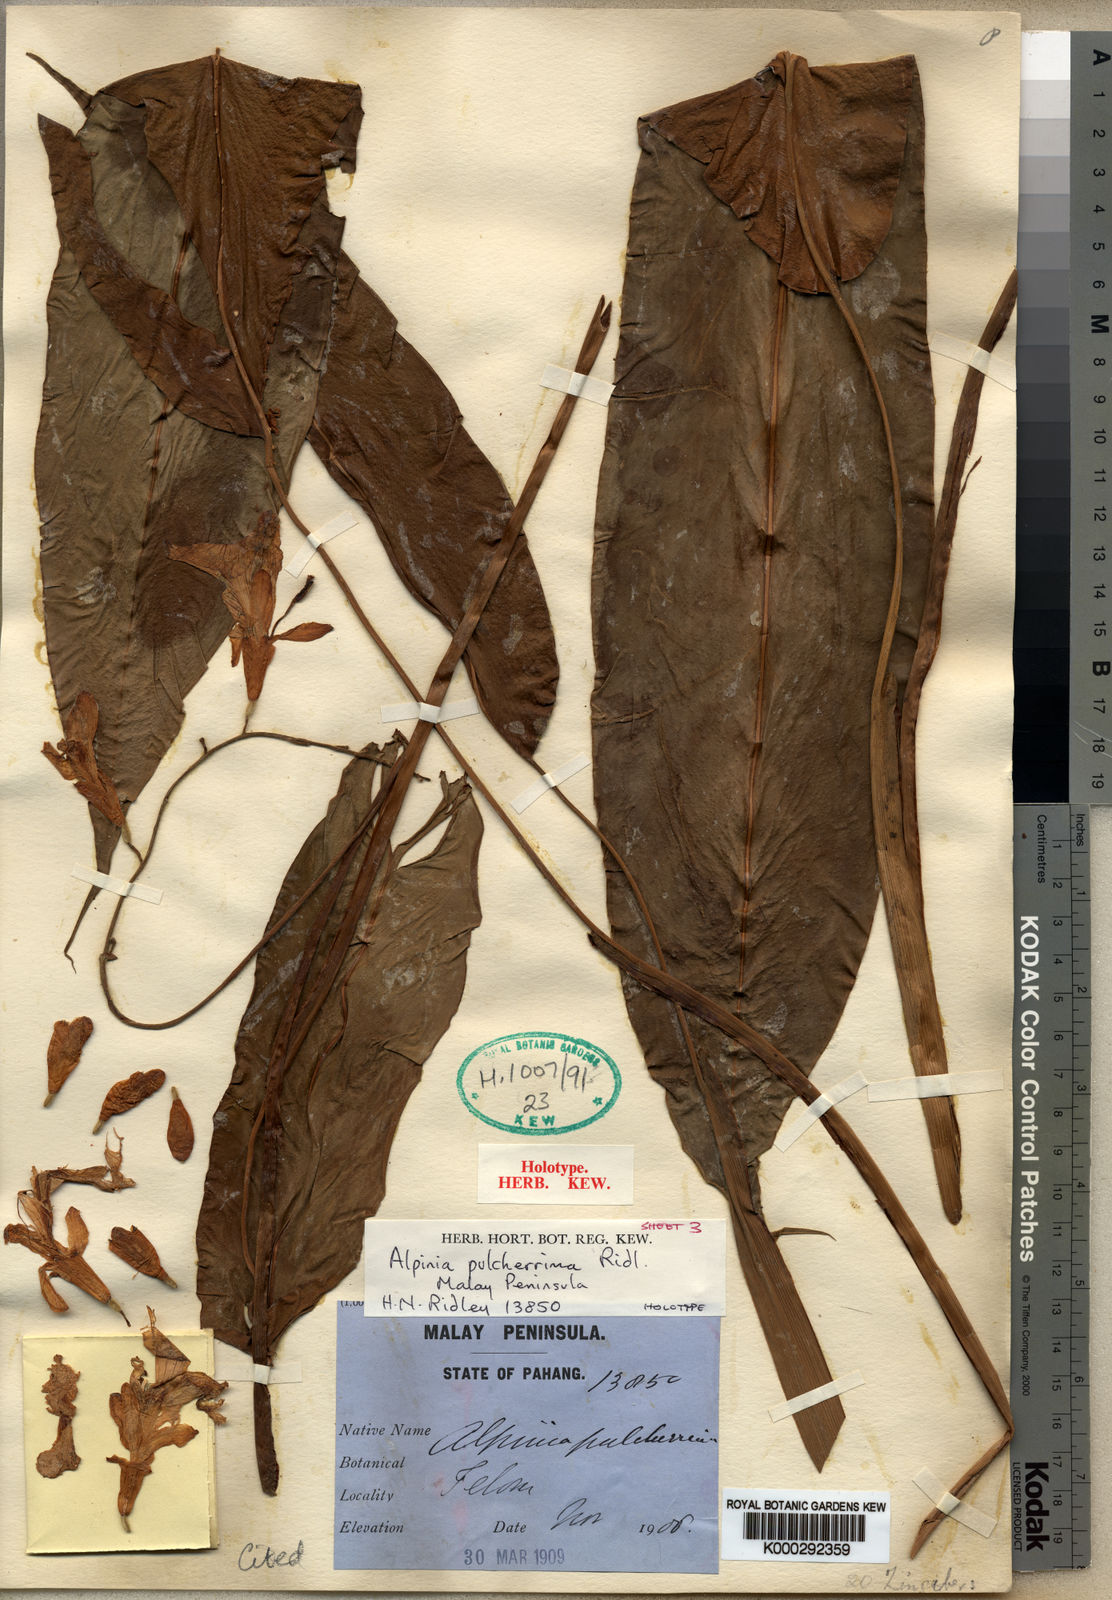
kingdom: Plantae
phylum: Tracheophyta
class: Liliopsida
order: Zingiberales
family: Zingiberaceae
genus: Alpinia
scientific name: Alpinia pulcherrima
